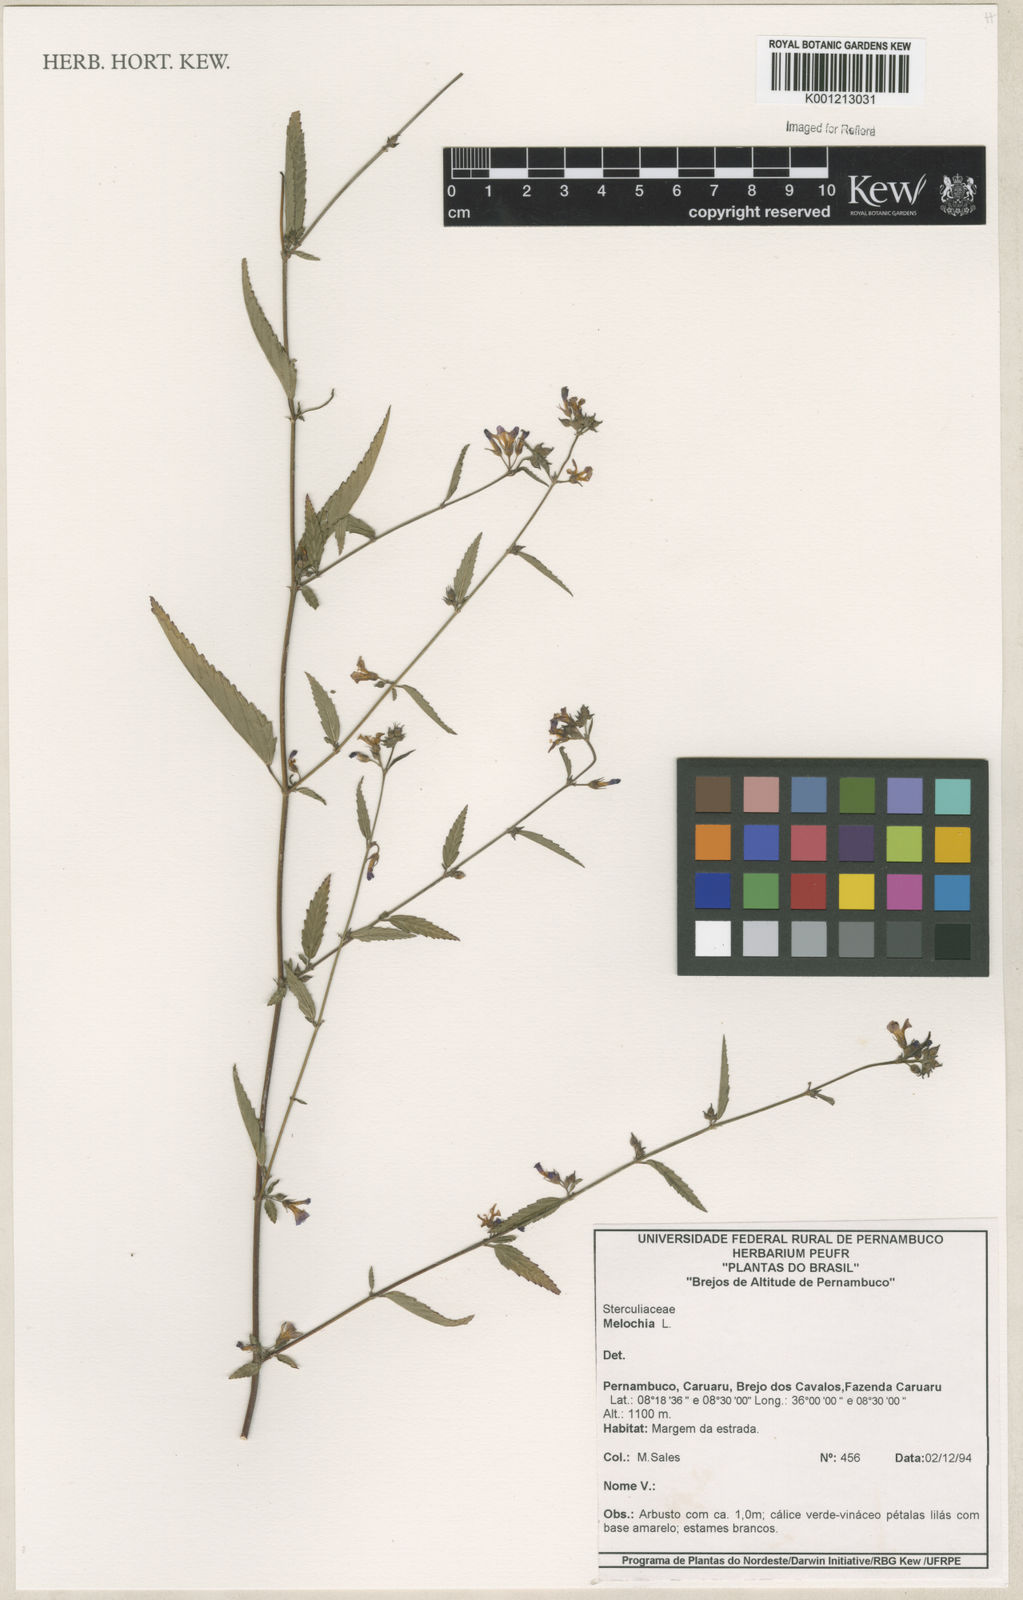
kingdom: Plantae
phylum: Tracheophyta
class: Magnoliopsida
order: Malvales
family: Malvaceae
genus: Melochia
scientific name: Melochia
